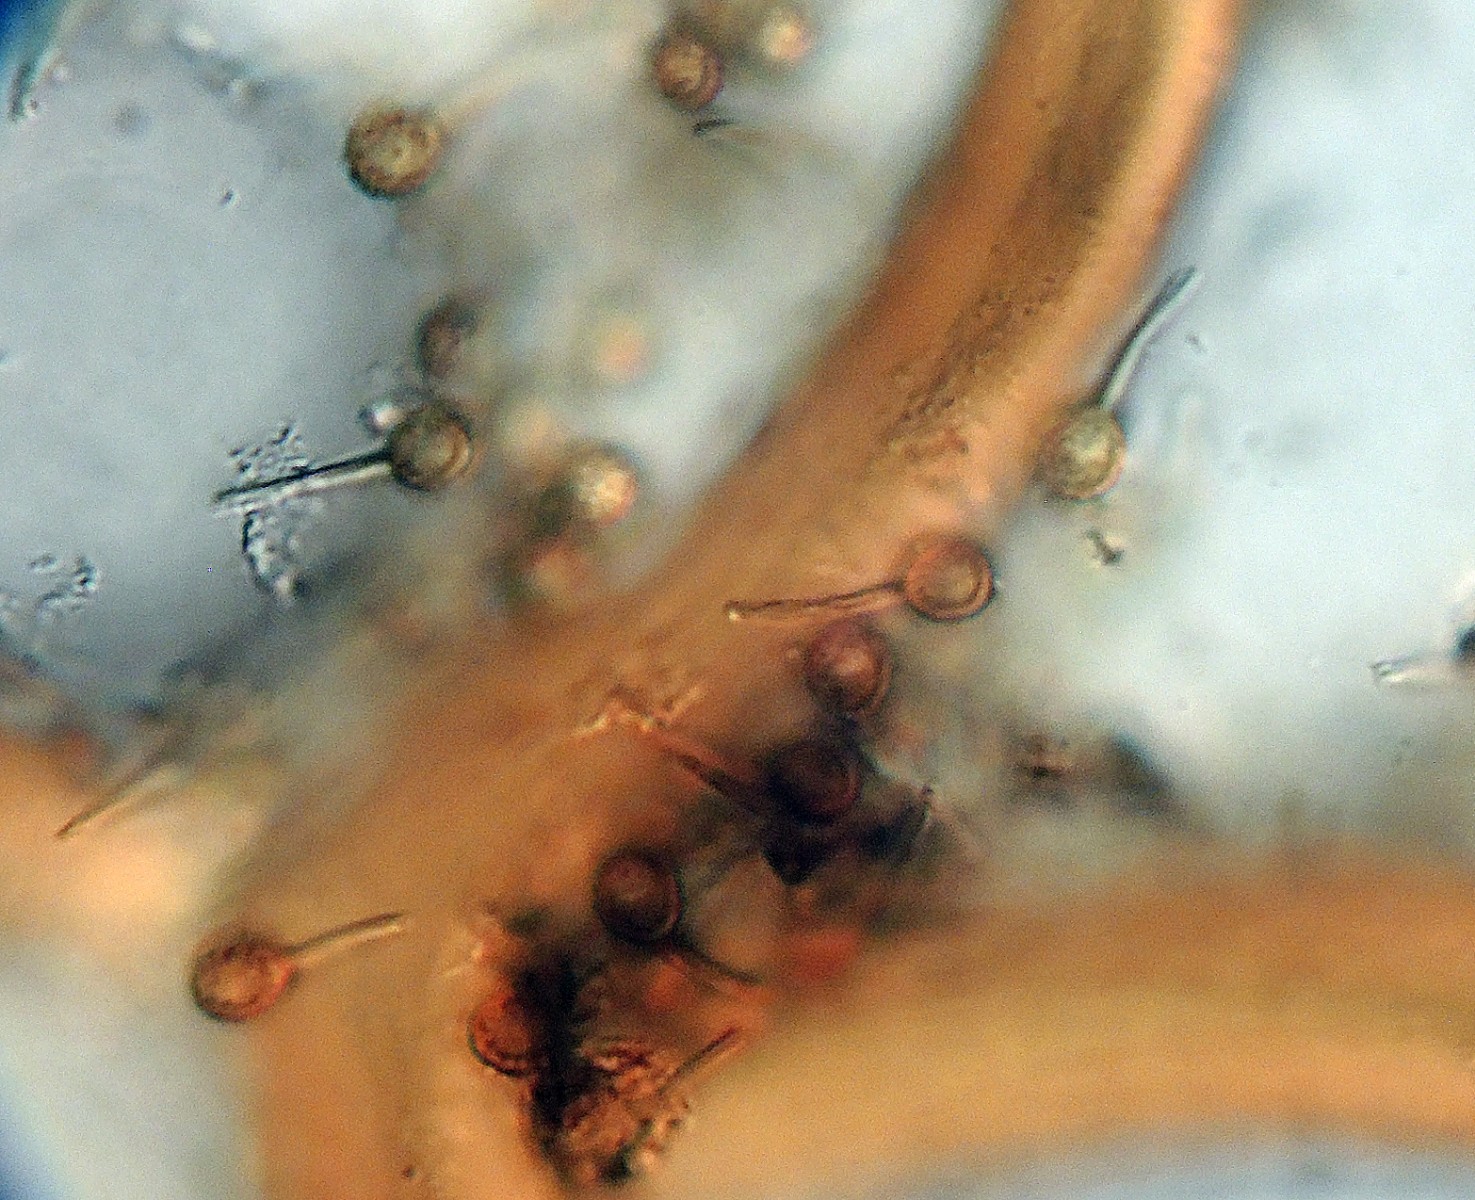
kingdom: Fungi
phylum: Basidiomycota
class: Agaricomycetes
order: Agaricales
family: Lycoperdaceae
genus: Bovista
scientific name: Bovista plumbea
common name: blygrå bovist
